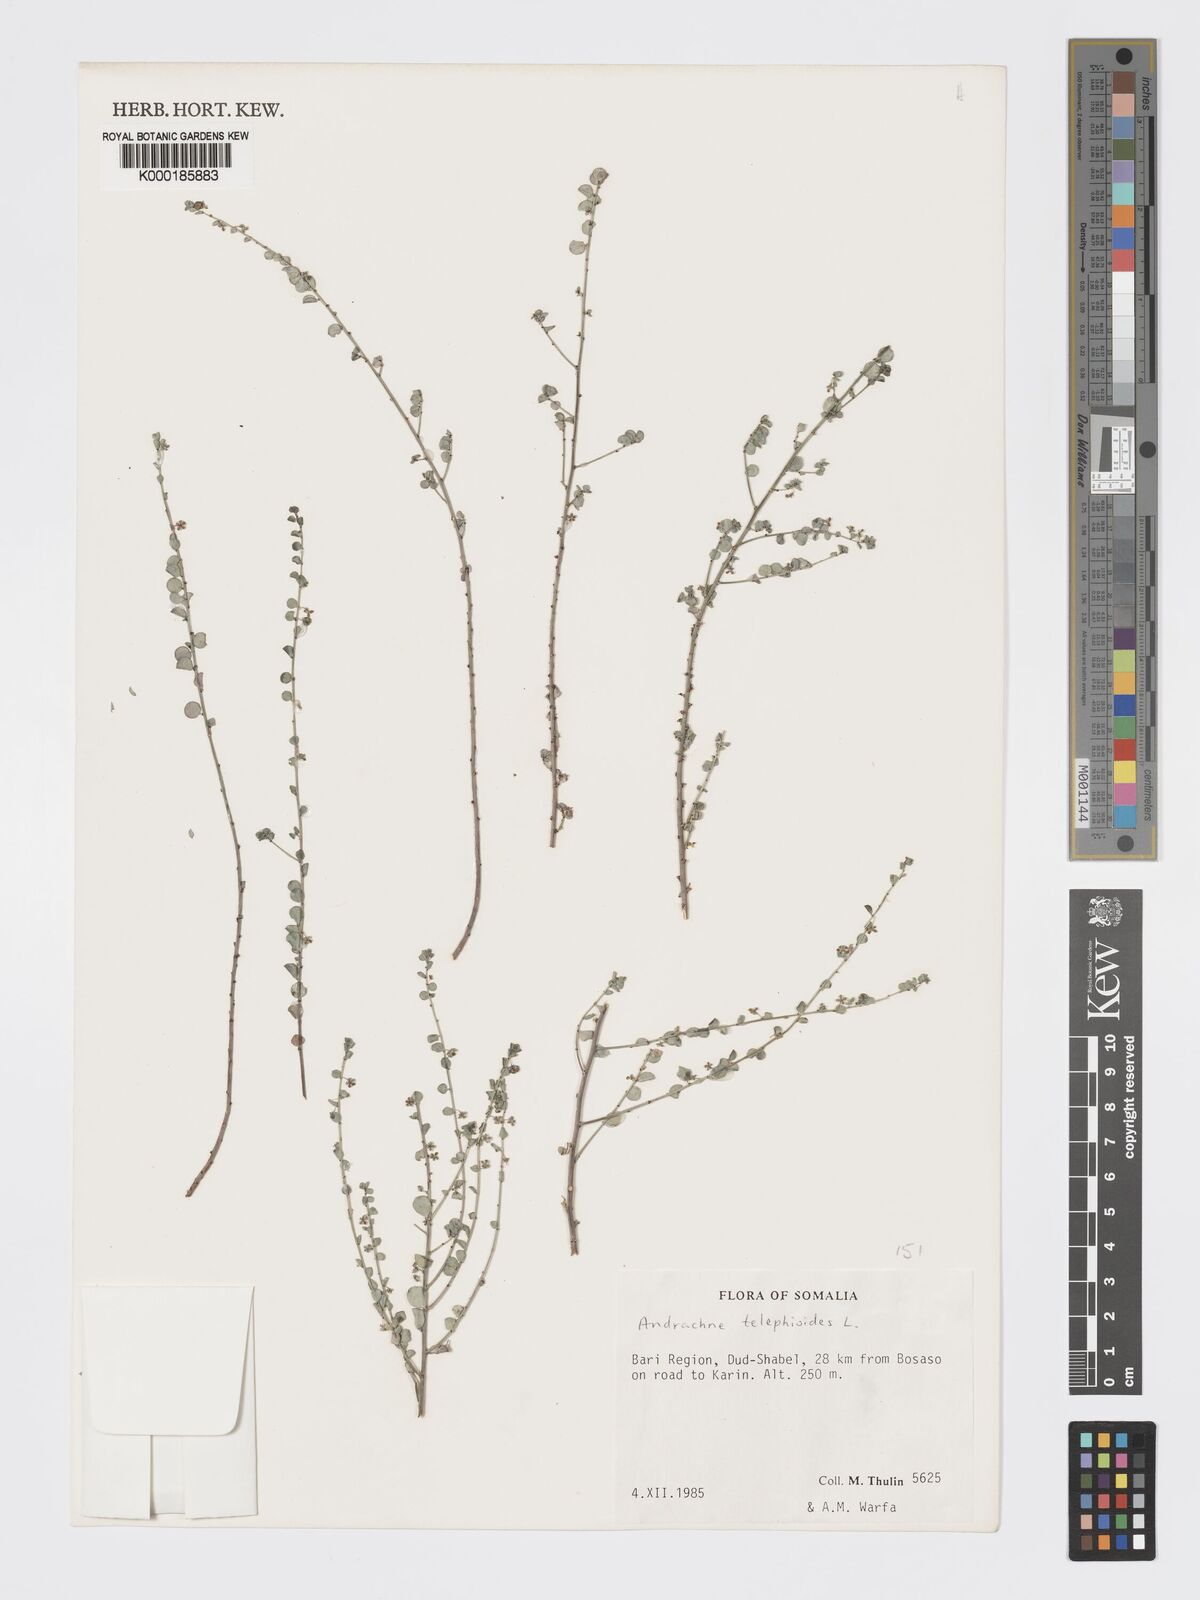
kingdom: Plantae
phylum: Tracheophyta
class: Magnoliopsida
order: Malpighiales
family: Phyllanthaceae
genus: Andrachne
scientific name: Andrachne telephioides
